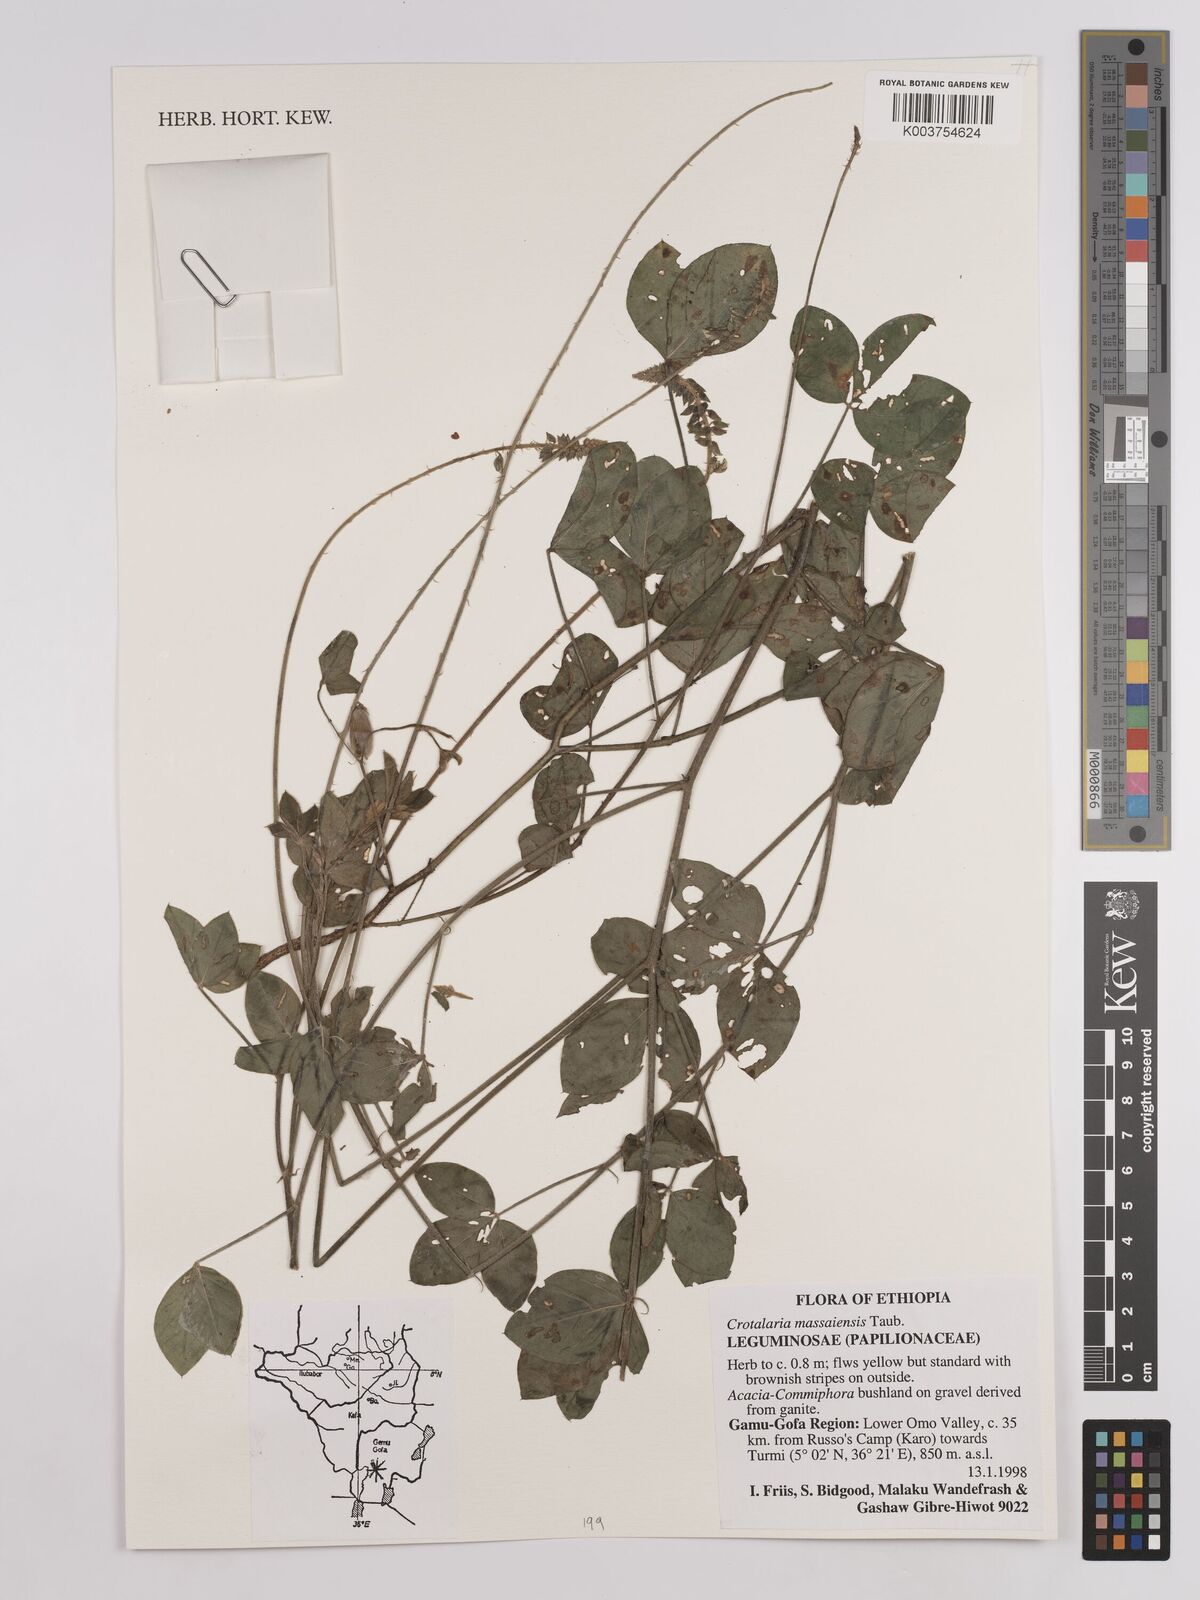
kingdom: Plantae
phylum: Tracheophyta
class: Magnoliopsida
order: Fabales
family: Fabaceae
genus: Crotalaria
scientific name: Crotalaria massaiensis
